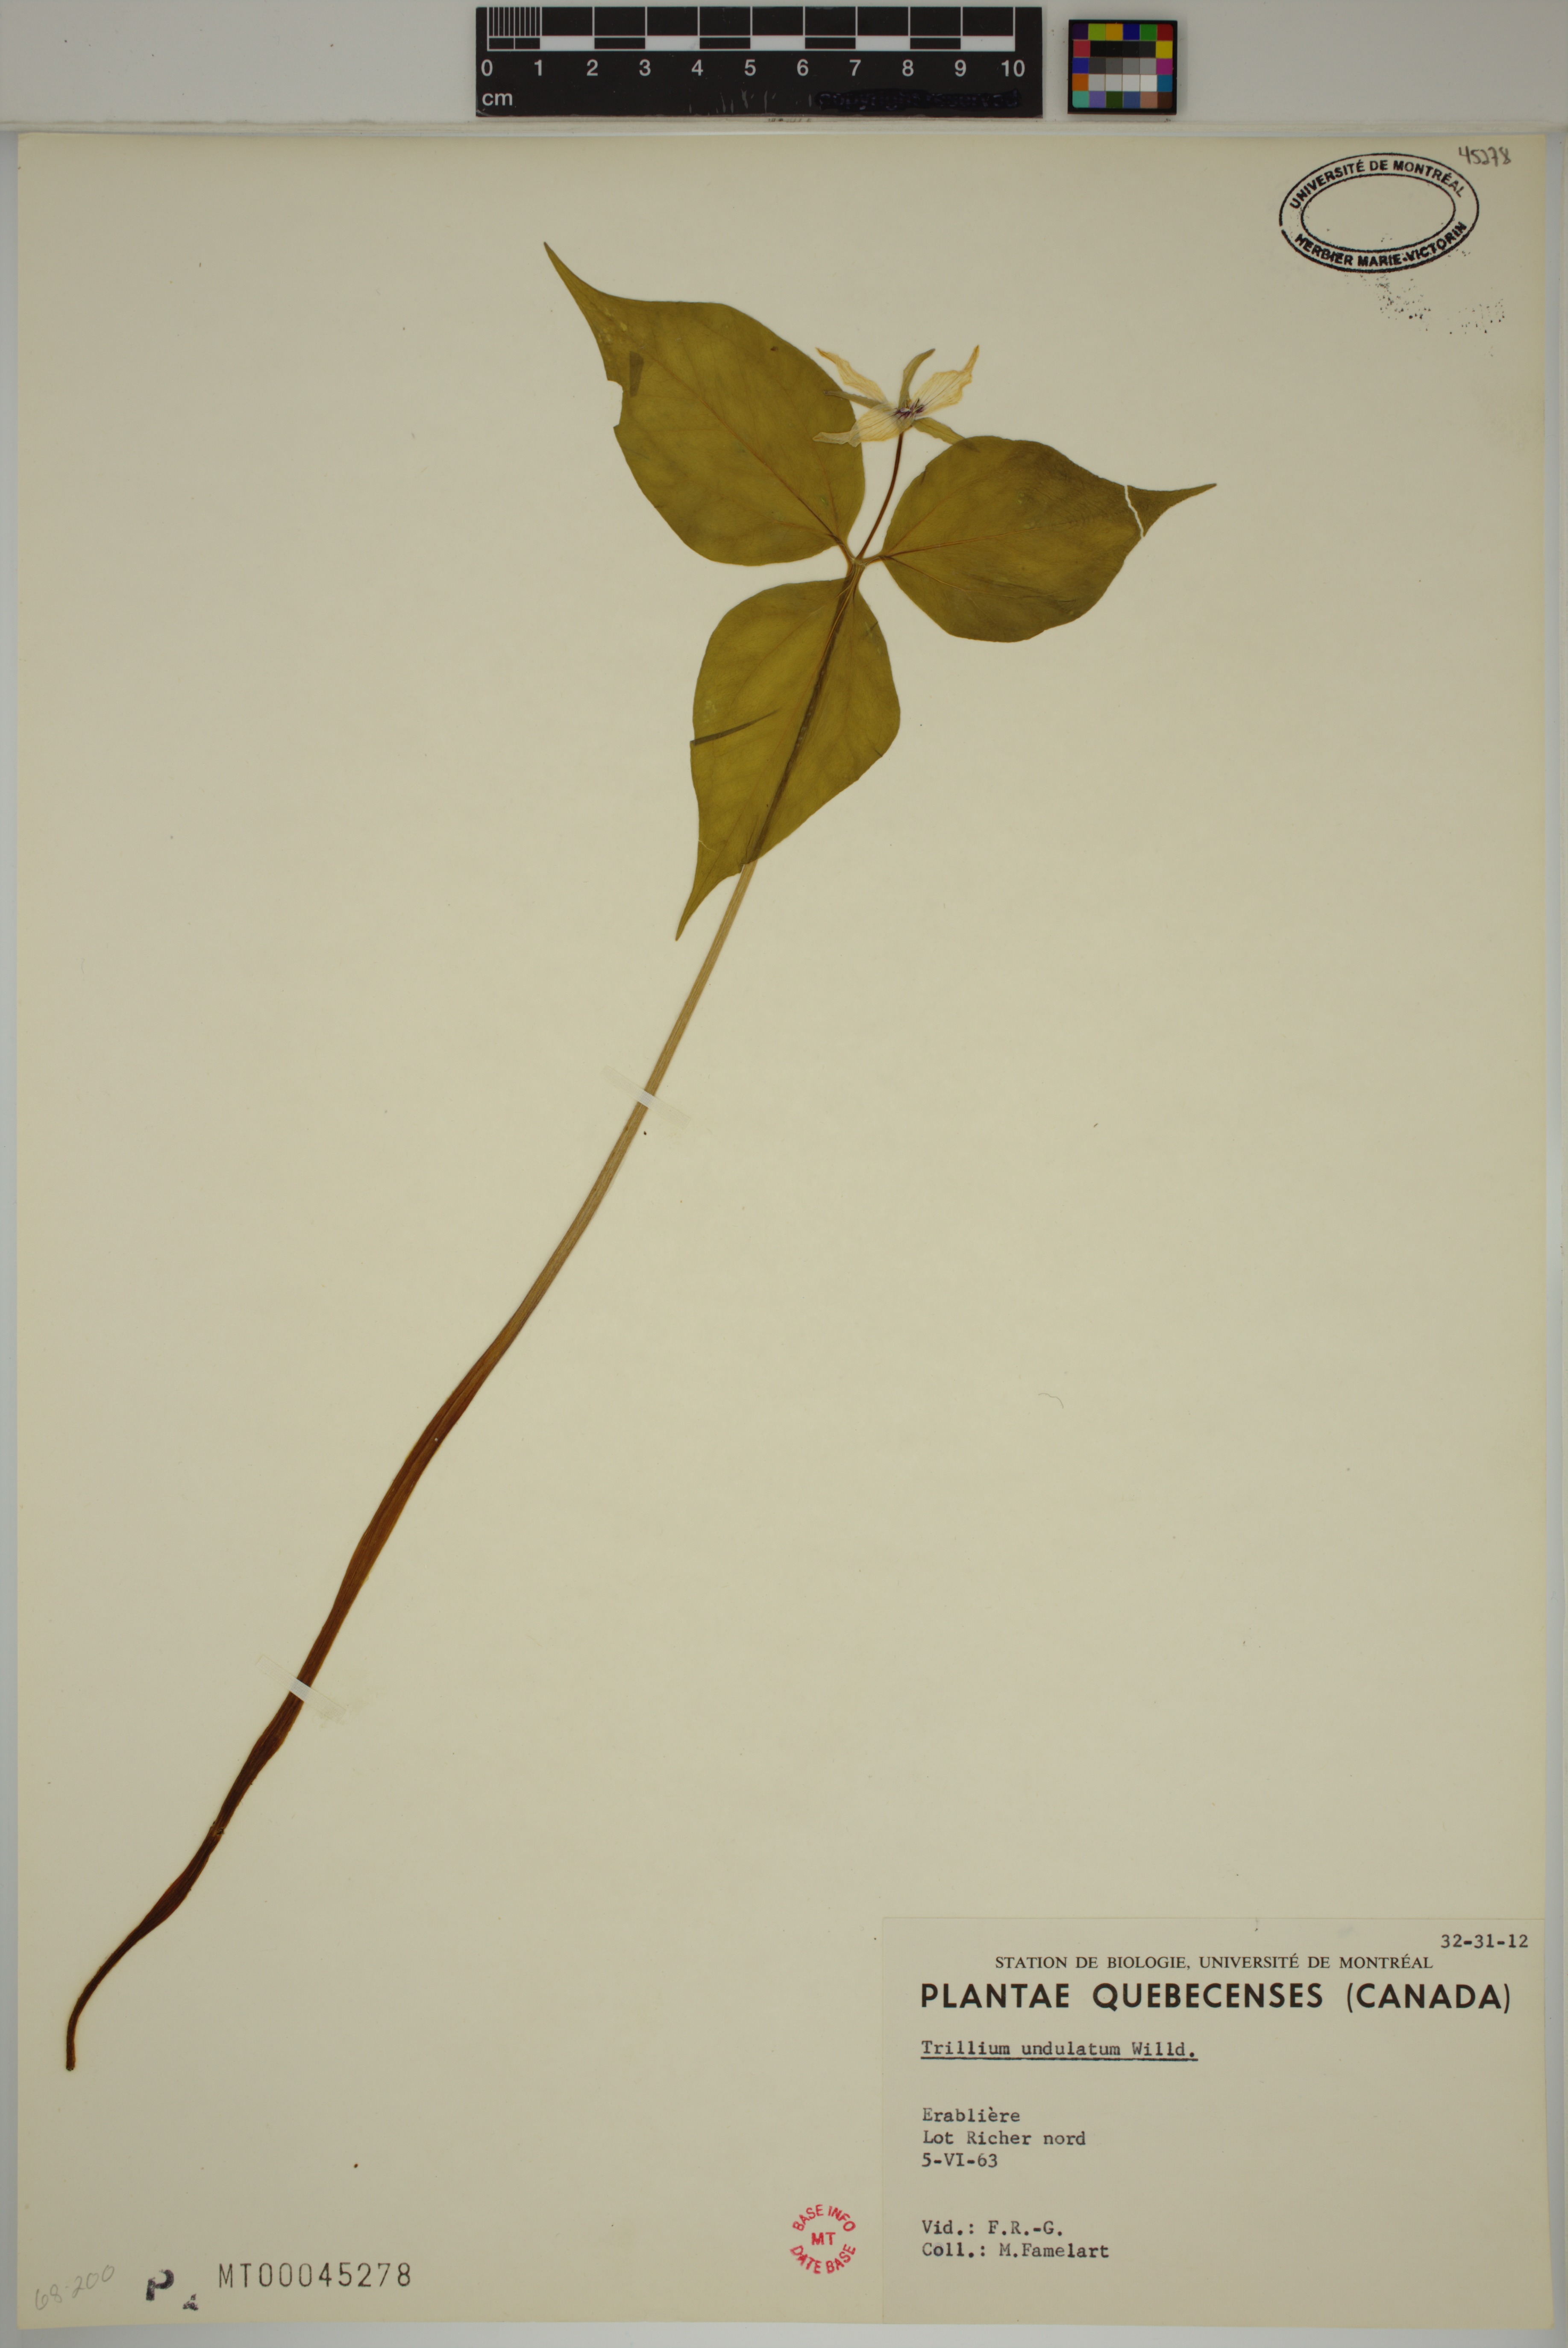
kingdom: Plantae
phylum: Tracheophyta
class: Liliopsida
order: Liliales
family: Melanthiaceae
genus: Trillium
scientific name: Trillium undulatum
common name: Paint trillium
